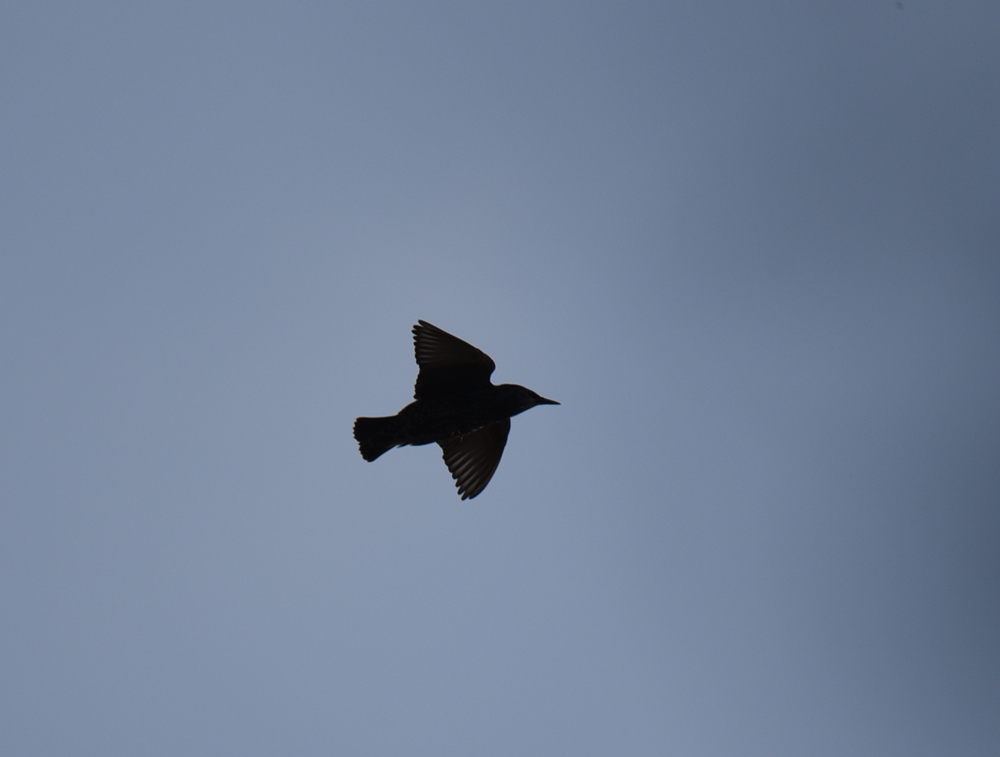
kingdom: Animalia
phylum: Chordata
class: Aves
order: Passeriformes
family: Sturnidae
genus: Sturnus
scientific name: Sturnus vulgaris
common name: Common starling
